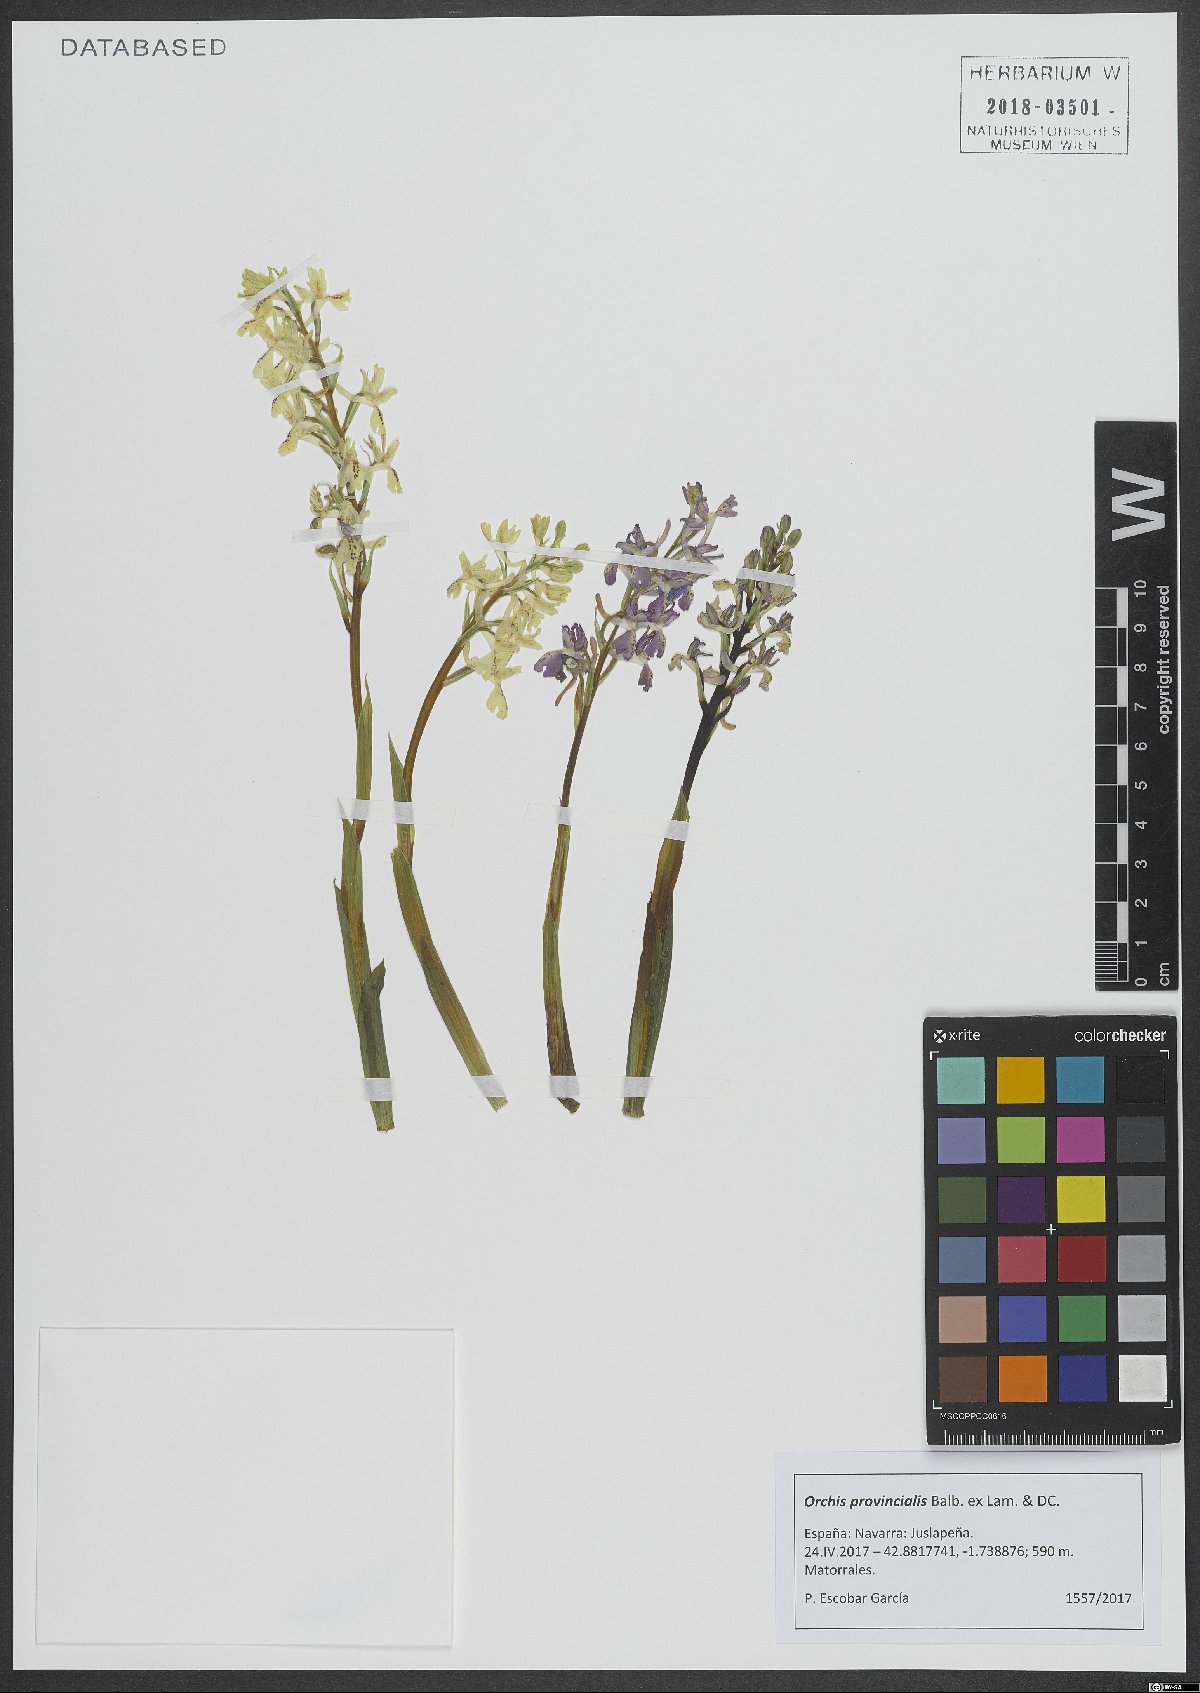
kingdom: Plantae
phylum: Tracheophyta
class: Liliopsida
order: Asparagales
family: Orchidaceae
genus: Orchis
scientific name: Orchis provincialis
